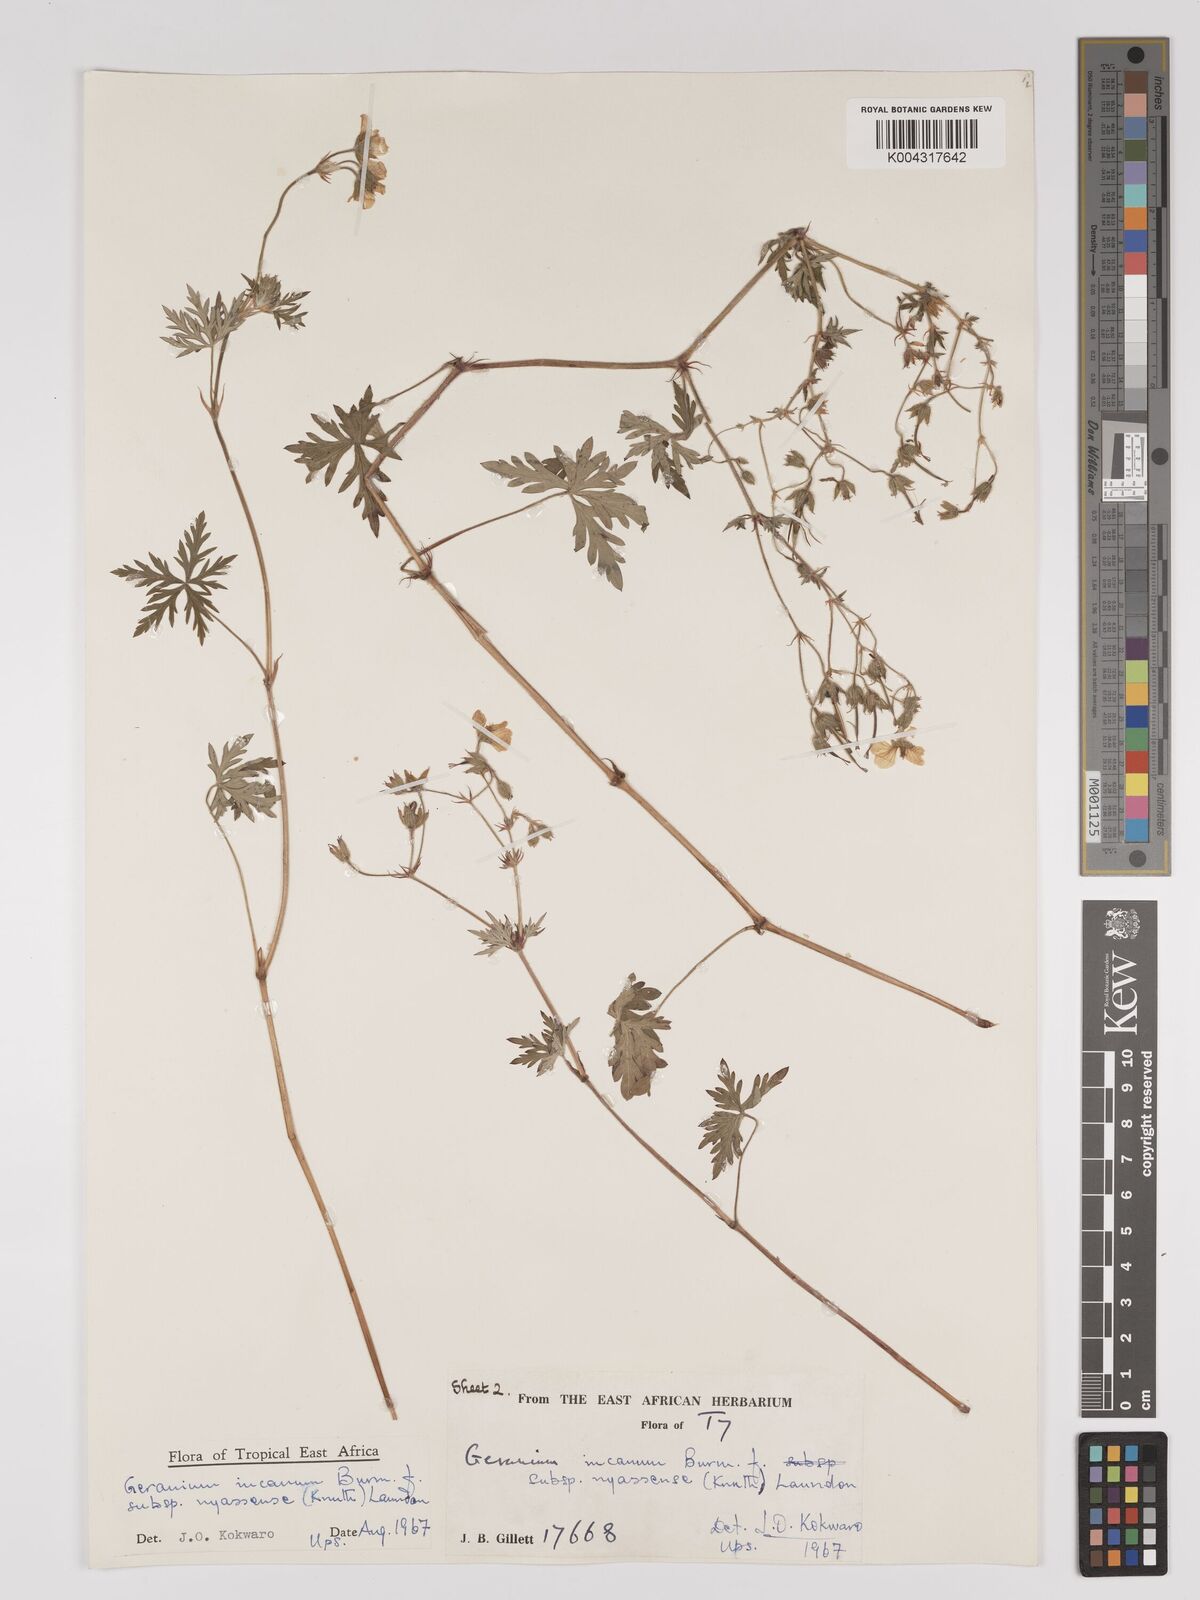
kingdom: Plantae
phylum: Tracheophyta
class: Magnoliopsida
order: Geraniales
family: Geraniaceae
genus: Geranium
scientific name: Geranium incanum
